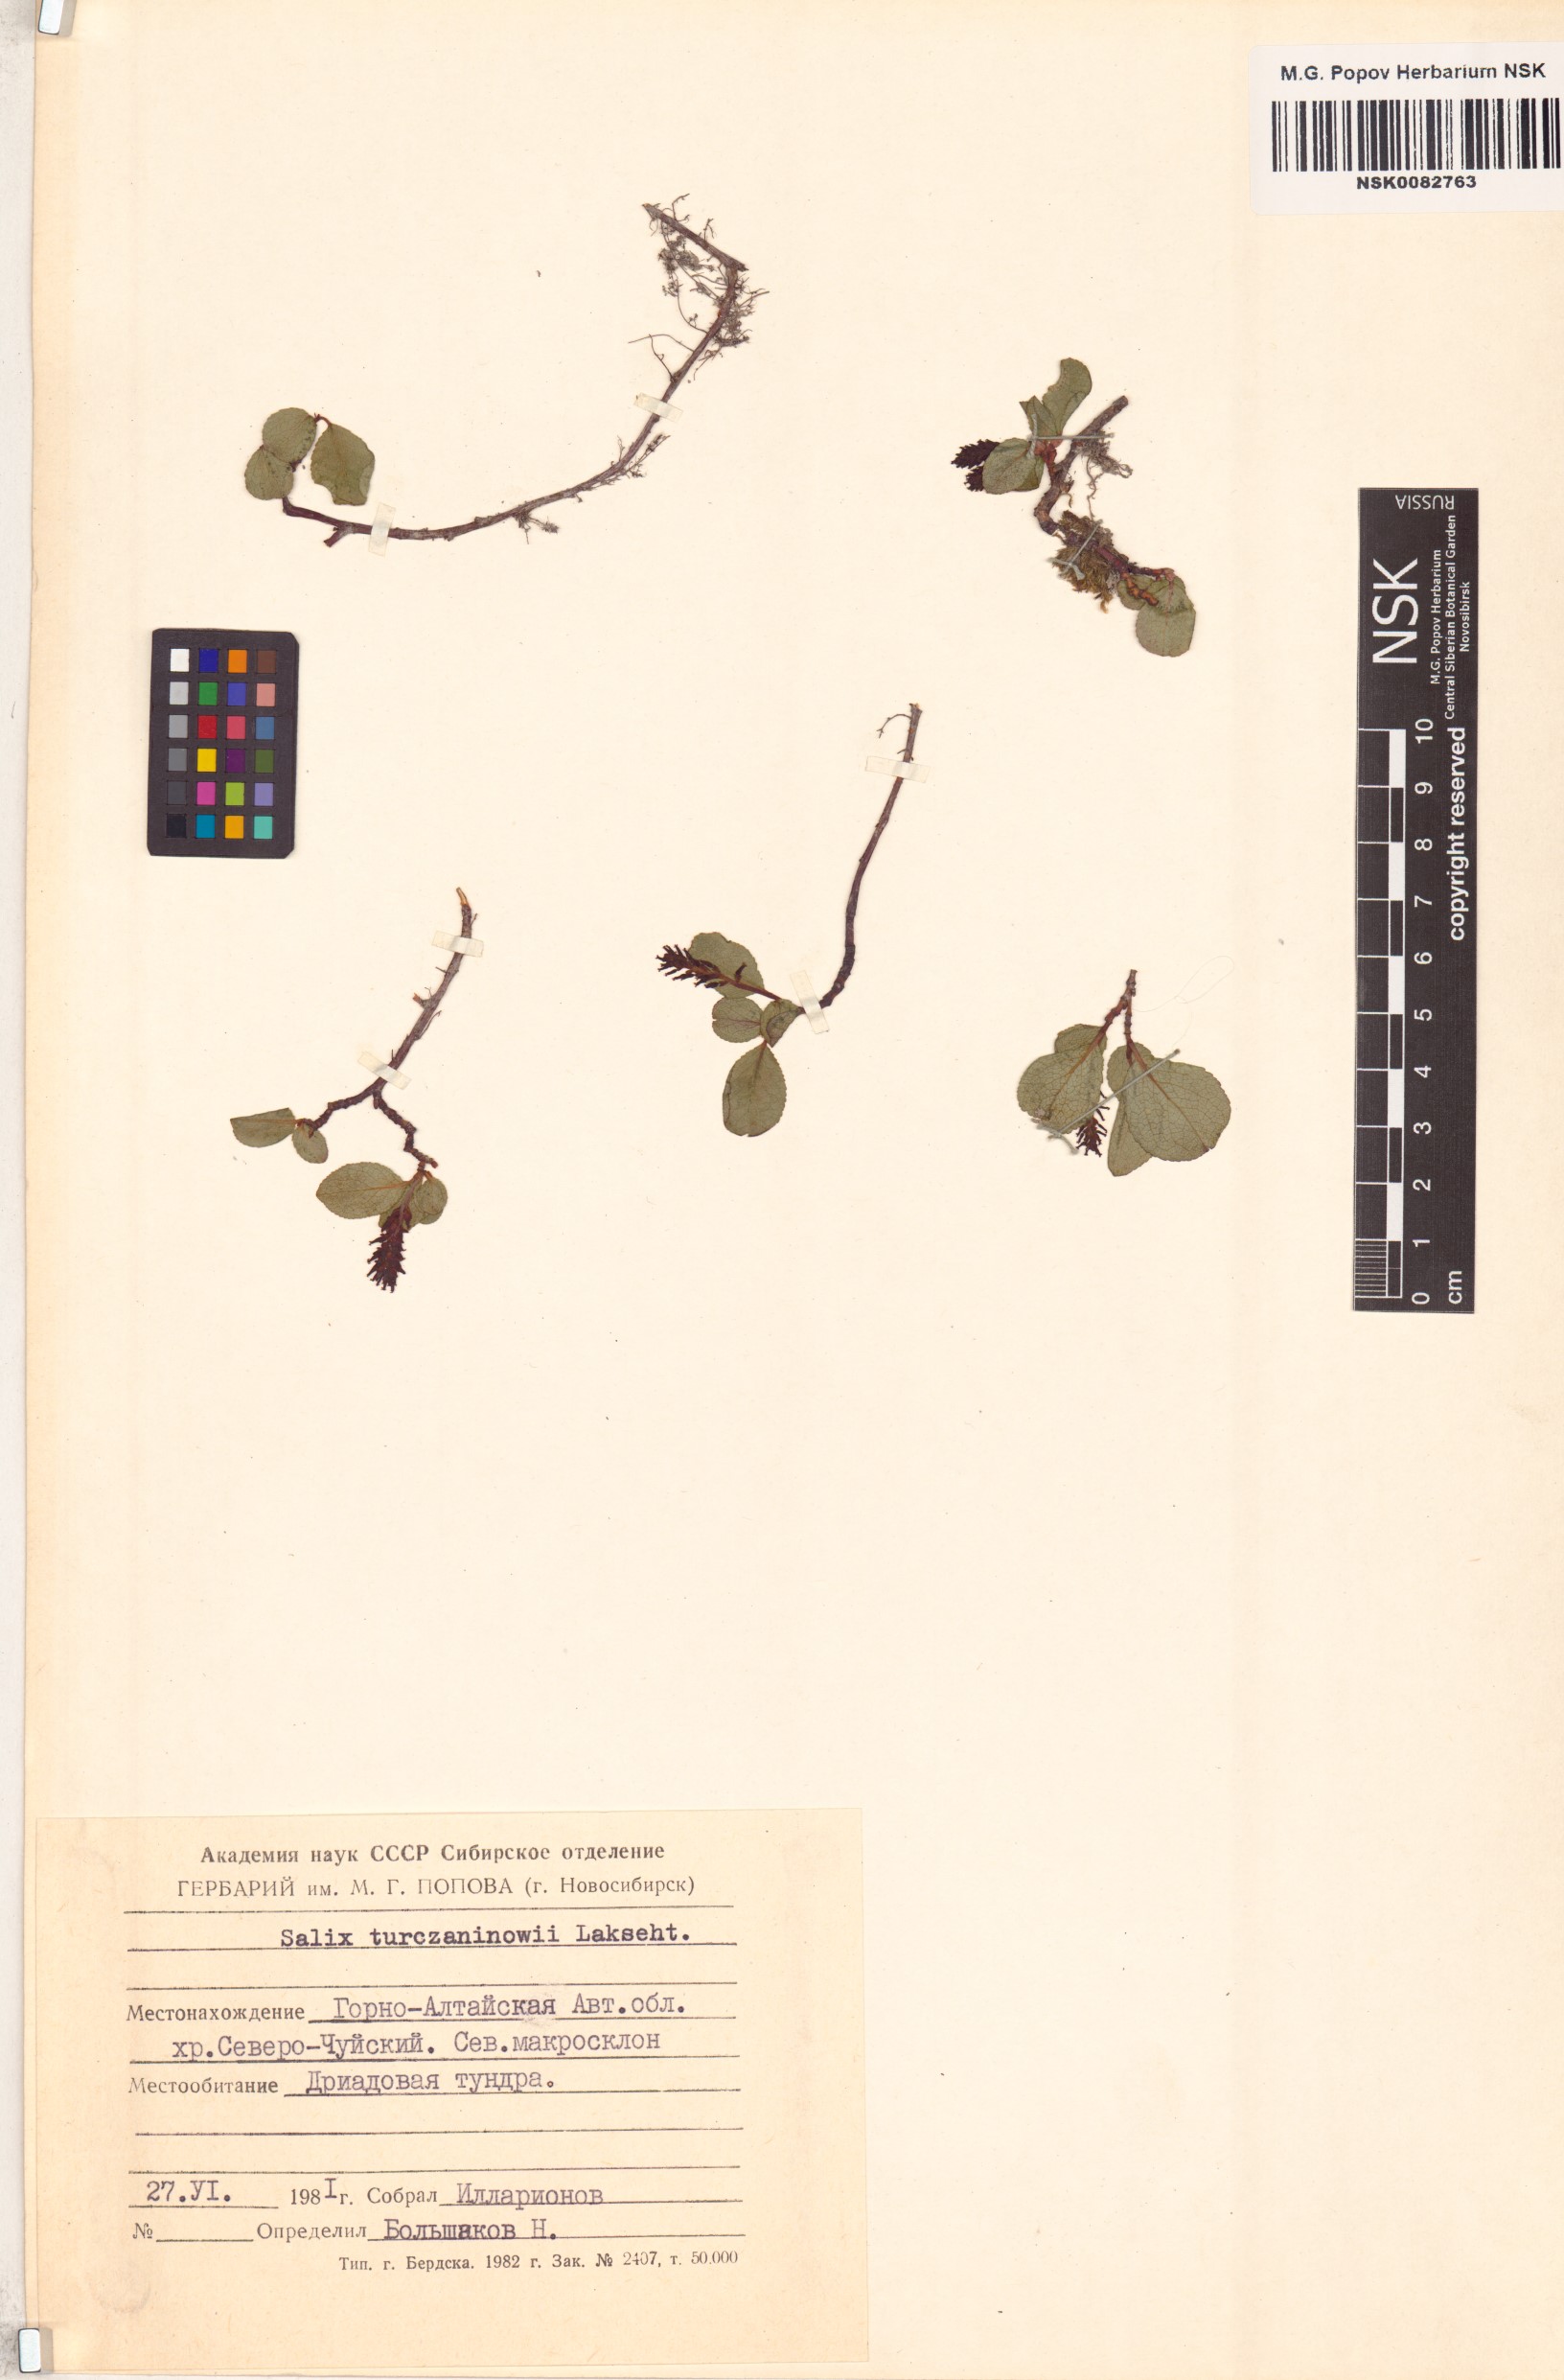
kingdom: Plantae
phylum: Tracheophyta
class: Magnoliopsida
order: Malpighiales
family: Salicaceae
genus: Salix
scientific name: Salix turczaninowii
